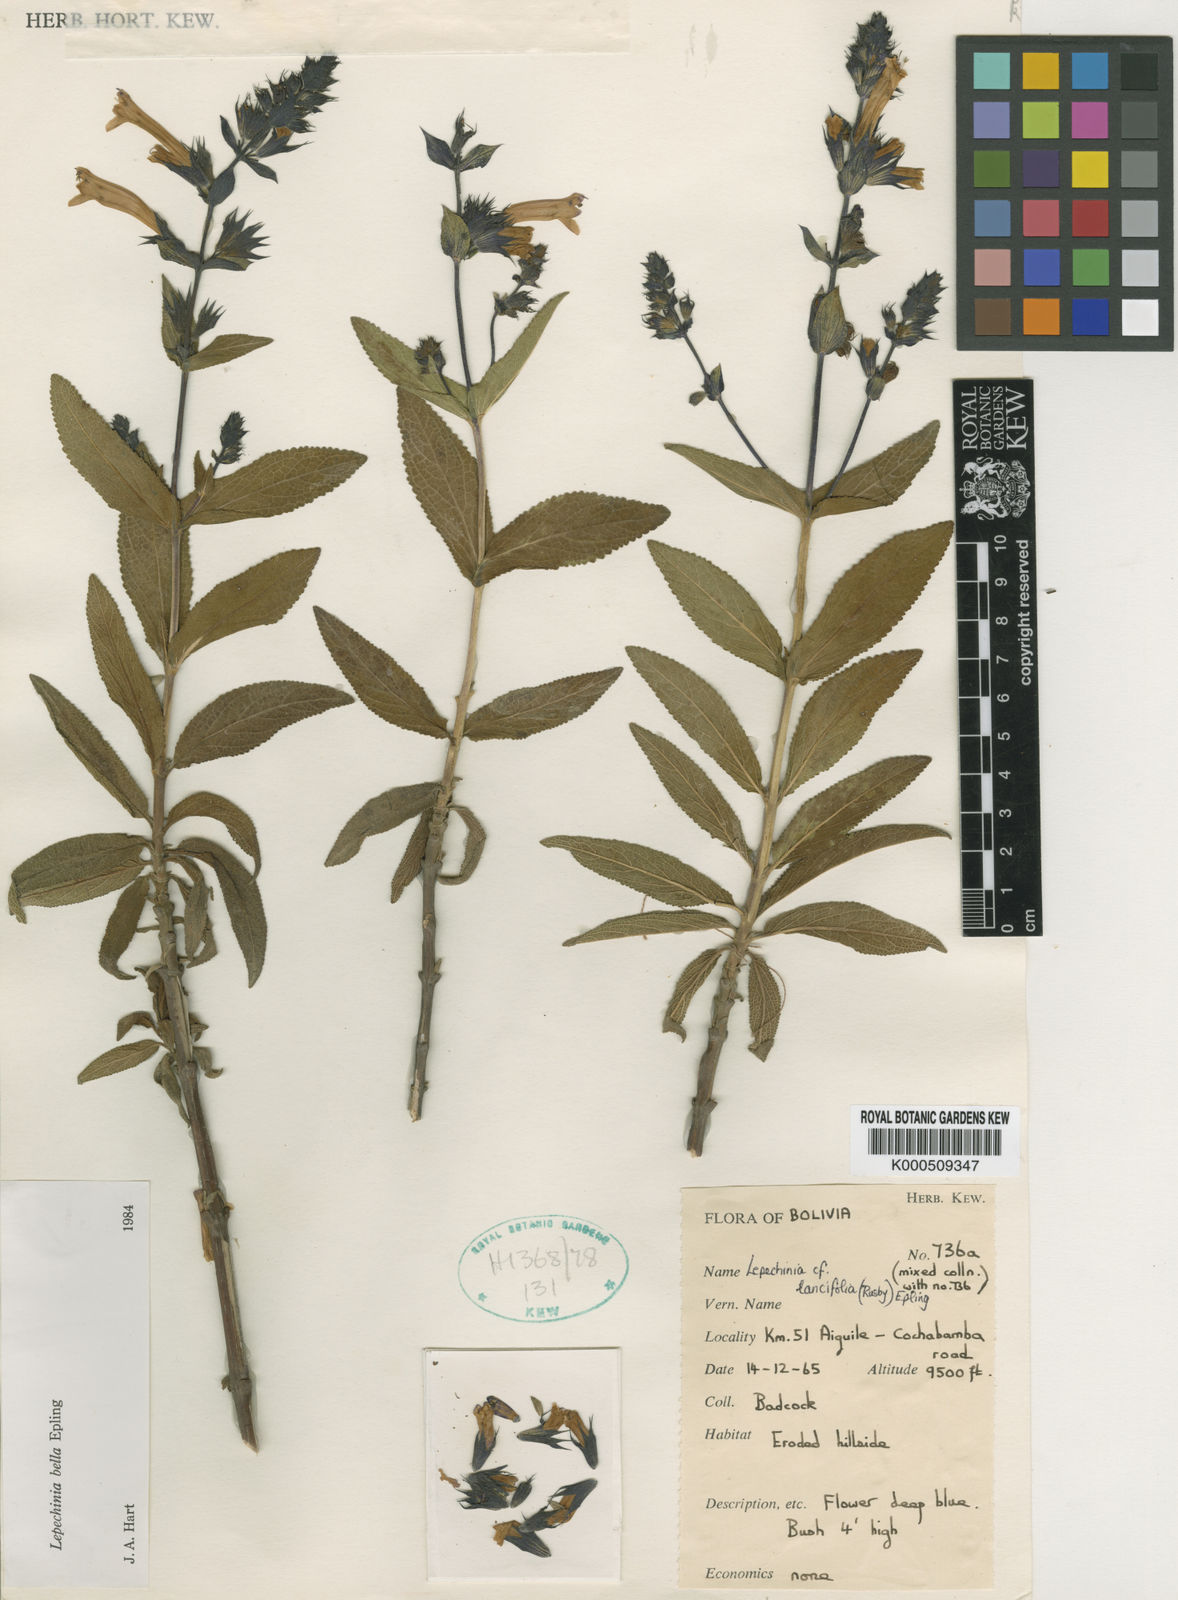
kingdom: Plantae
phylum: Tracheophyta
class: Magnoliopsida
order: Lamiales
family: Lamiaceae
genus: Lepechinia
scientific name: Lepechinia bella
